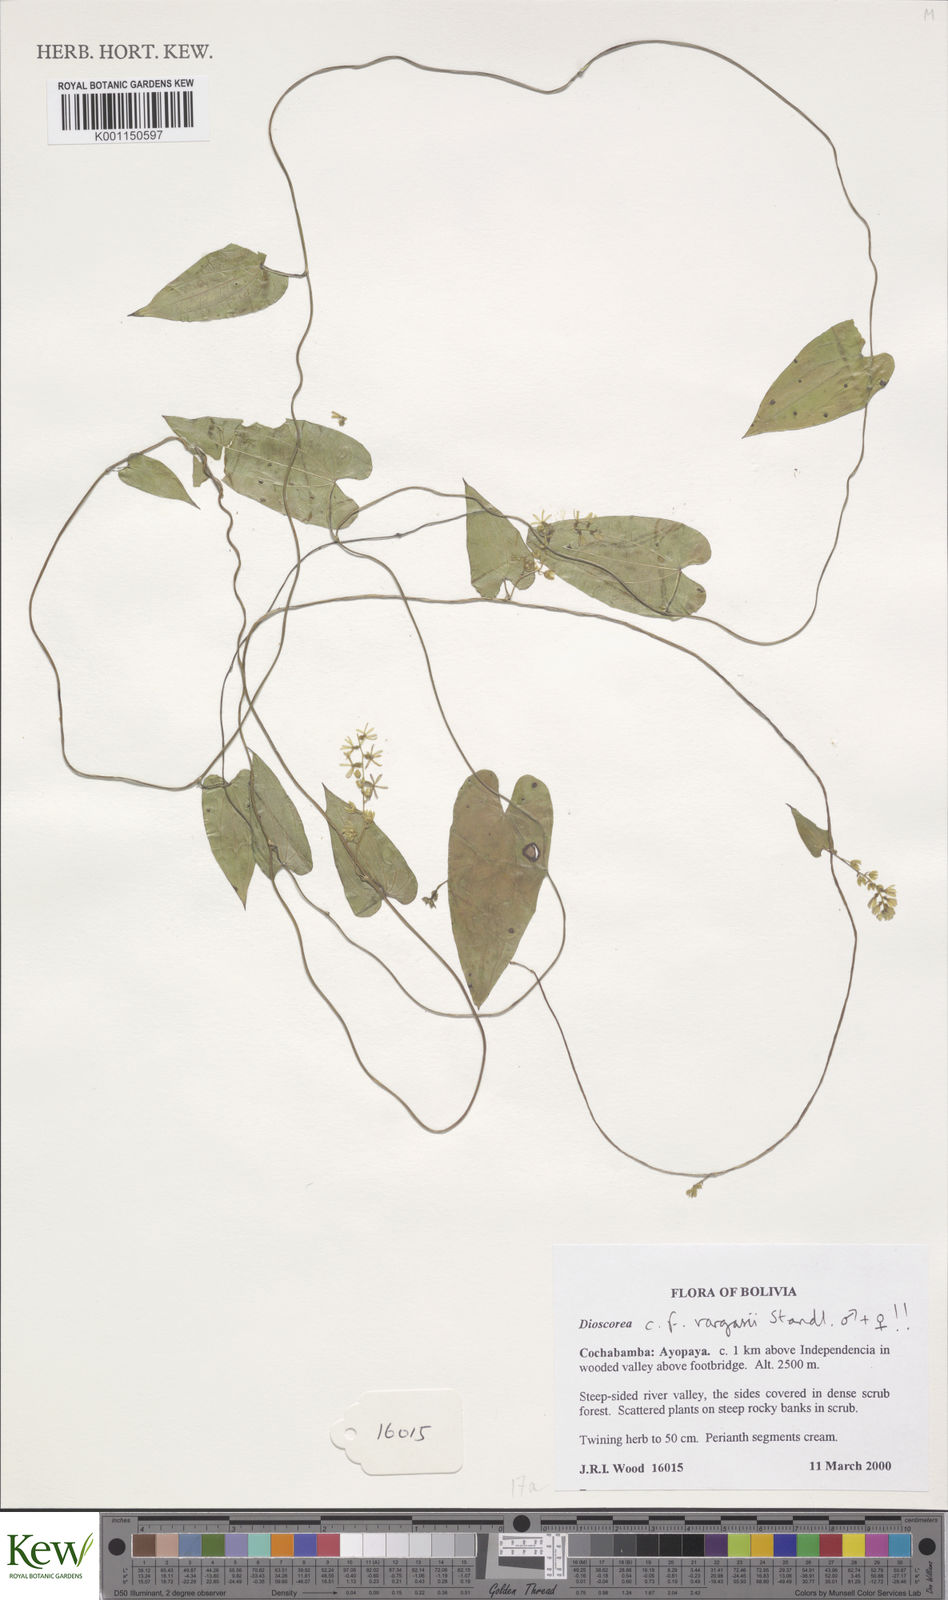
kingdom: Plantae
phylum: Tracheophyta
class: Liliopsida
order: Dioscoreales
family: Dioscoreaceae
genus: Dioscorea
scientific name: Dioscorea incayensis
